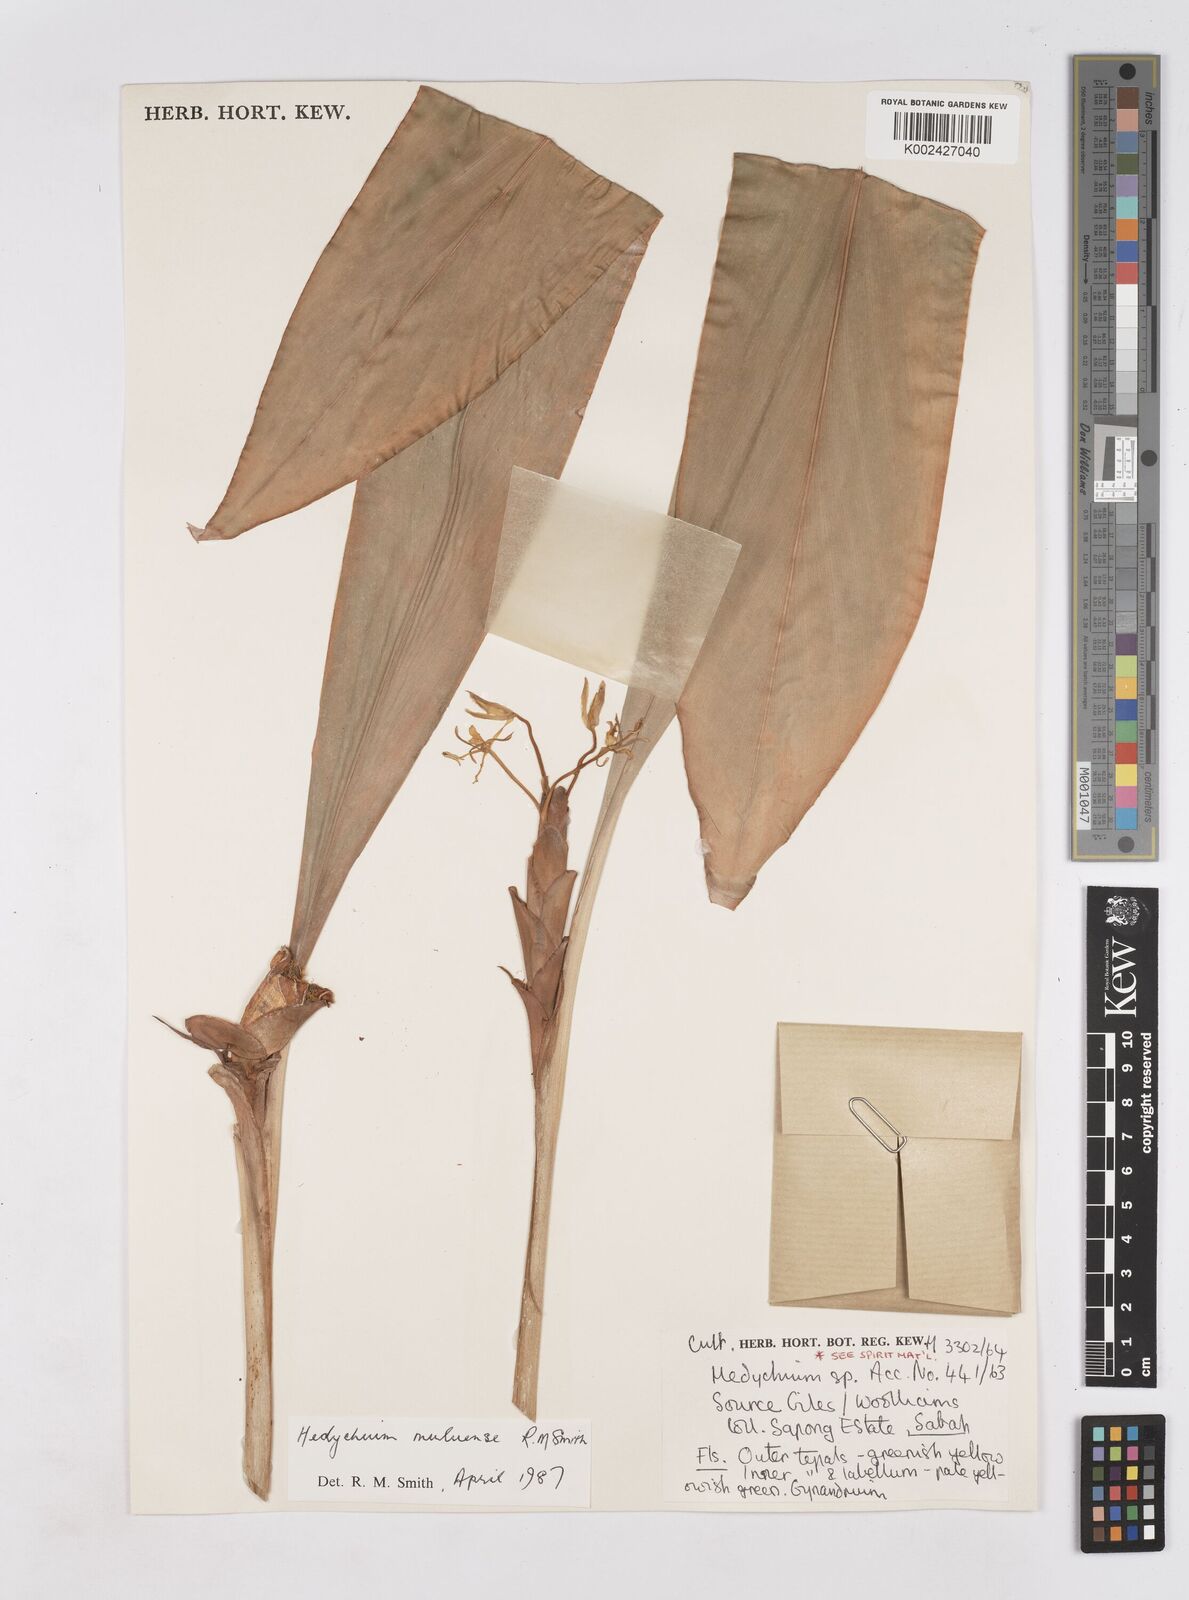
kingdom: Plantae
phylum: Tracheophyta
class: Liliopsida
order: Zingiberales
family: Zingiberaceae
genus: Hedychium
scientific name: Hedychium muluense
